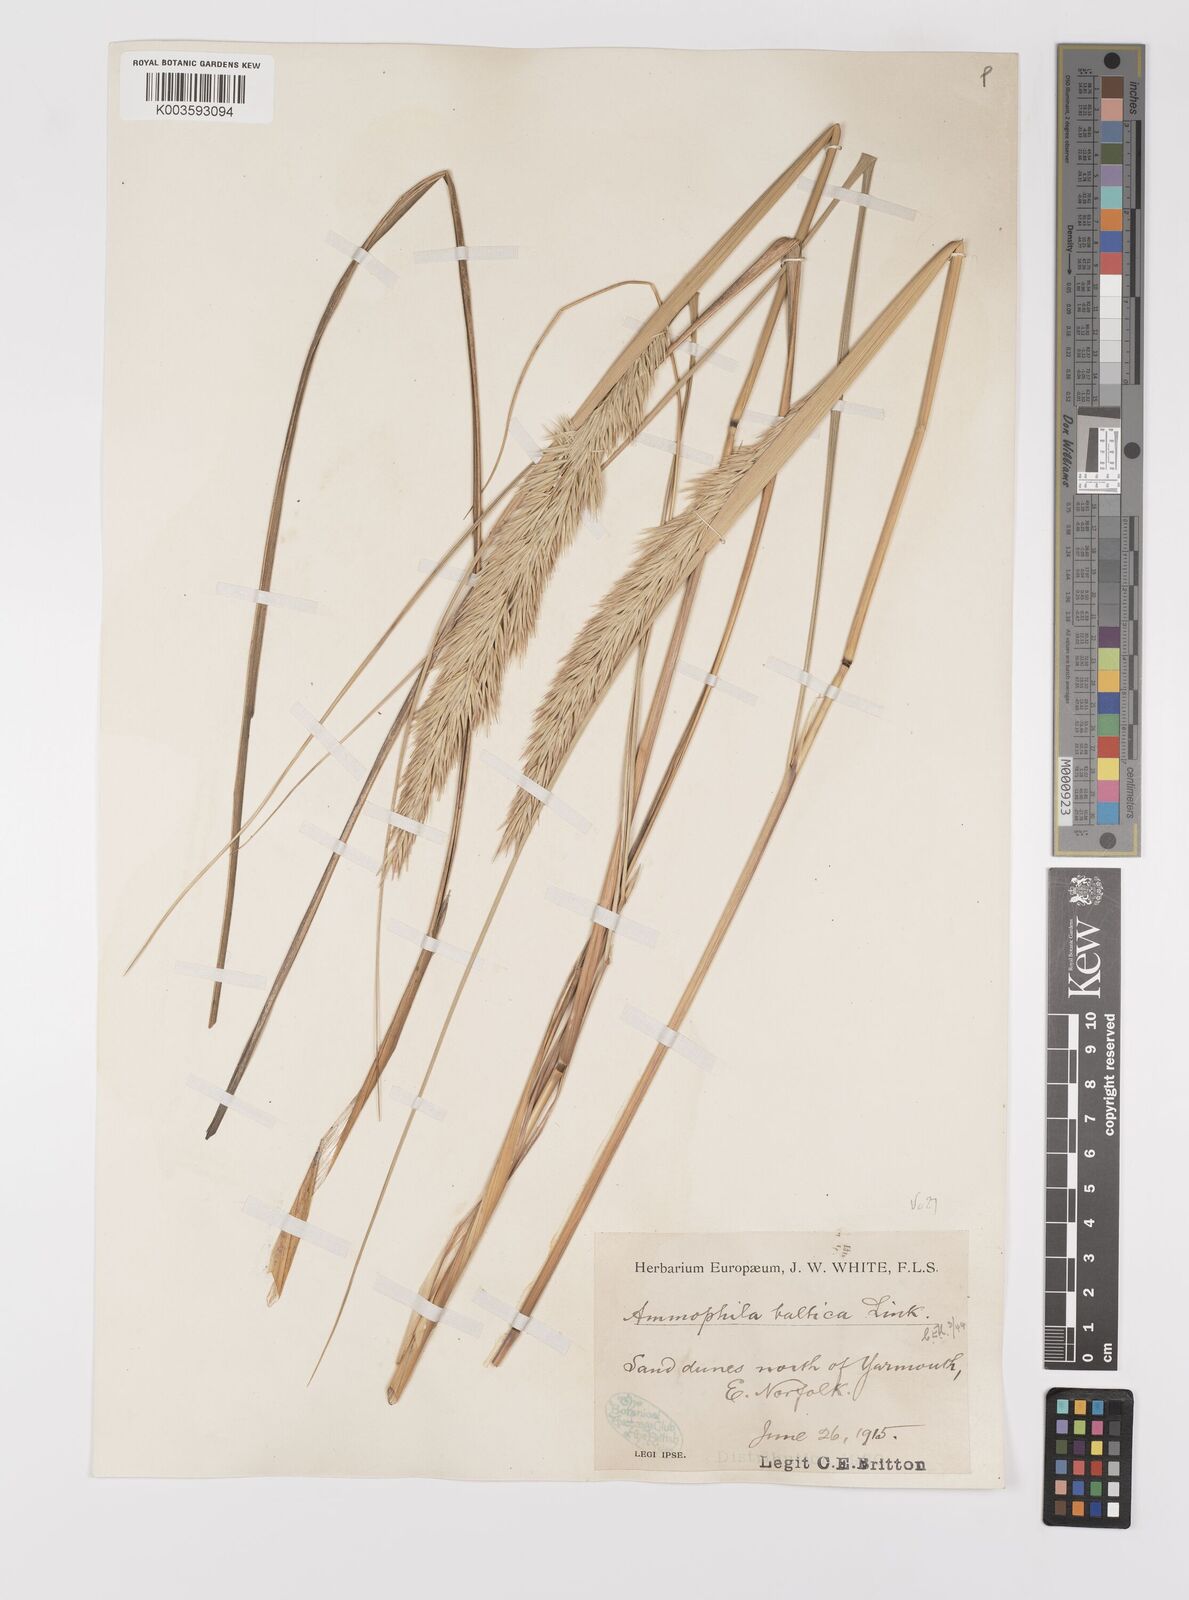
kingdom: Plantae
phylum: Tracheophyta
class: Liliopsida
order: Poales
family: Poaceae
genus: Calamagrostis
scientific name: Calamagrostis baltica
